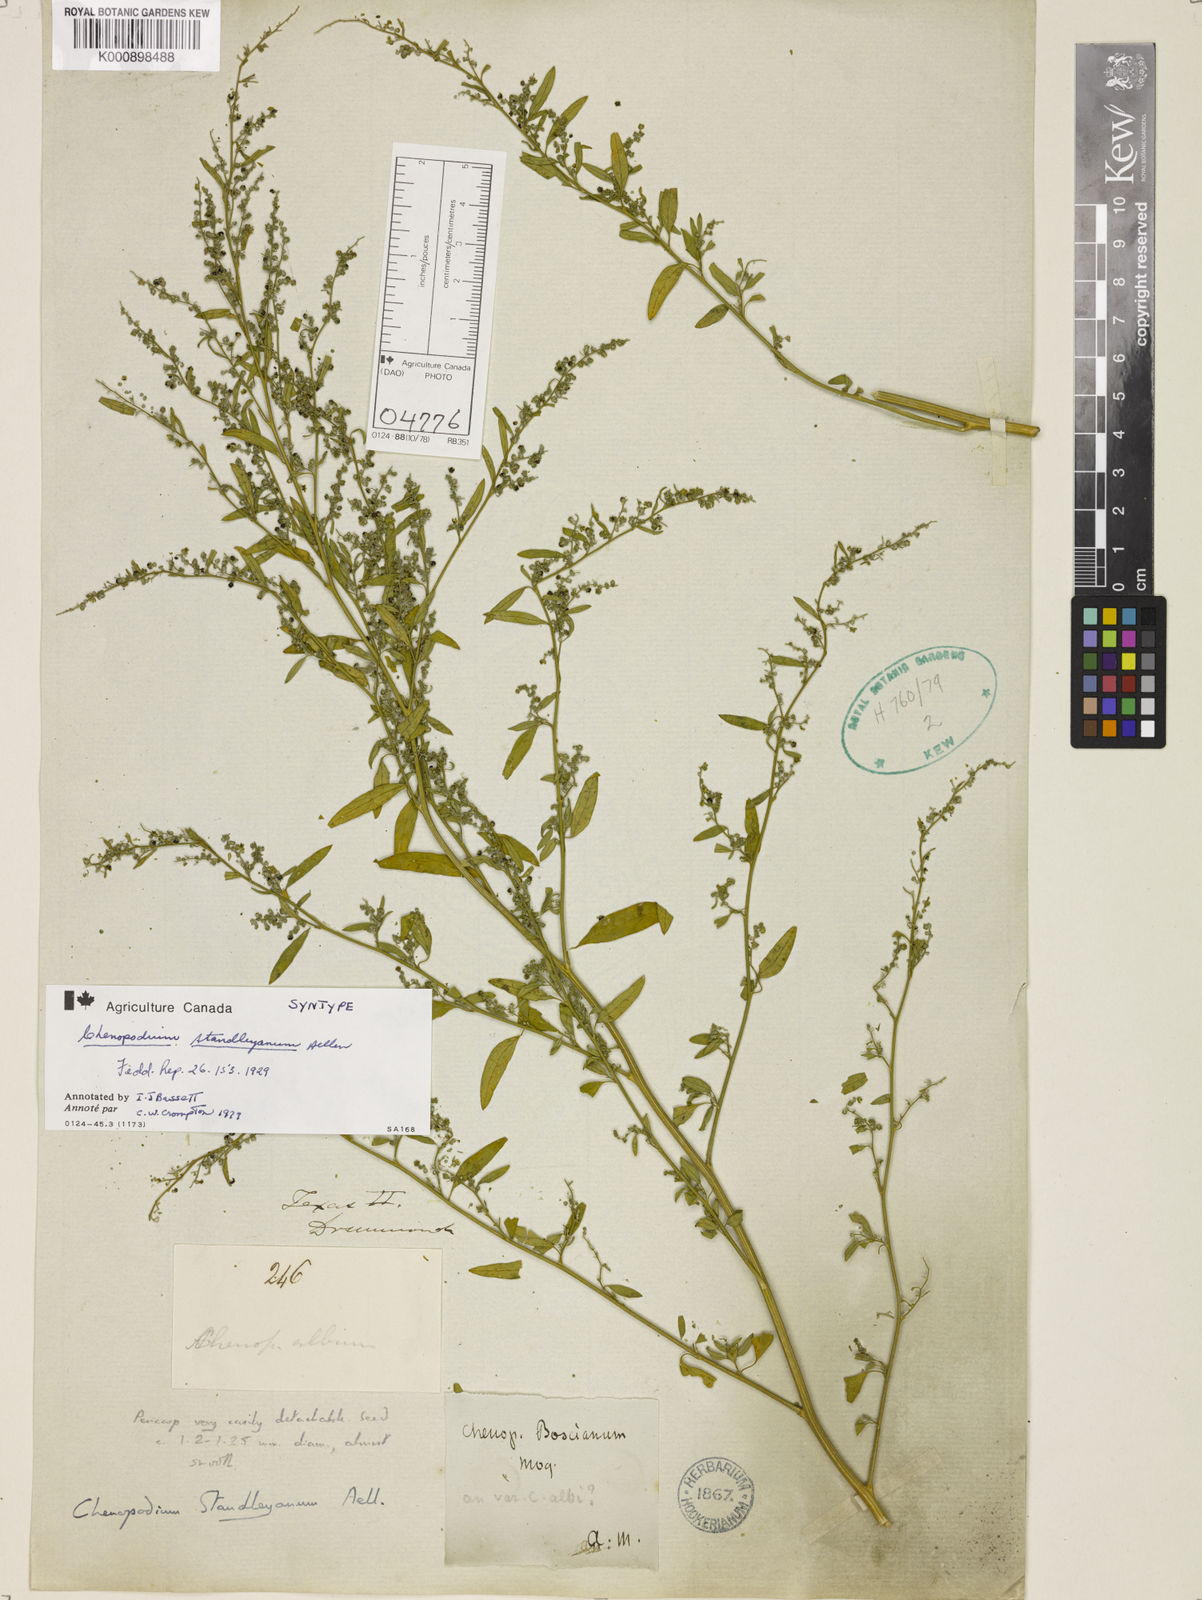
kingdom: Plantae
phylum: Tracheophyta
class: Magnoliopsida
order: Caryophyllales
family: Amaranthaceae
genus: Chenopodiastrum
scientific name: Chenopodiastrum standleyanum
